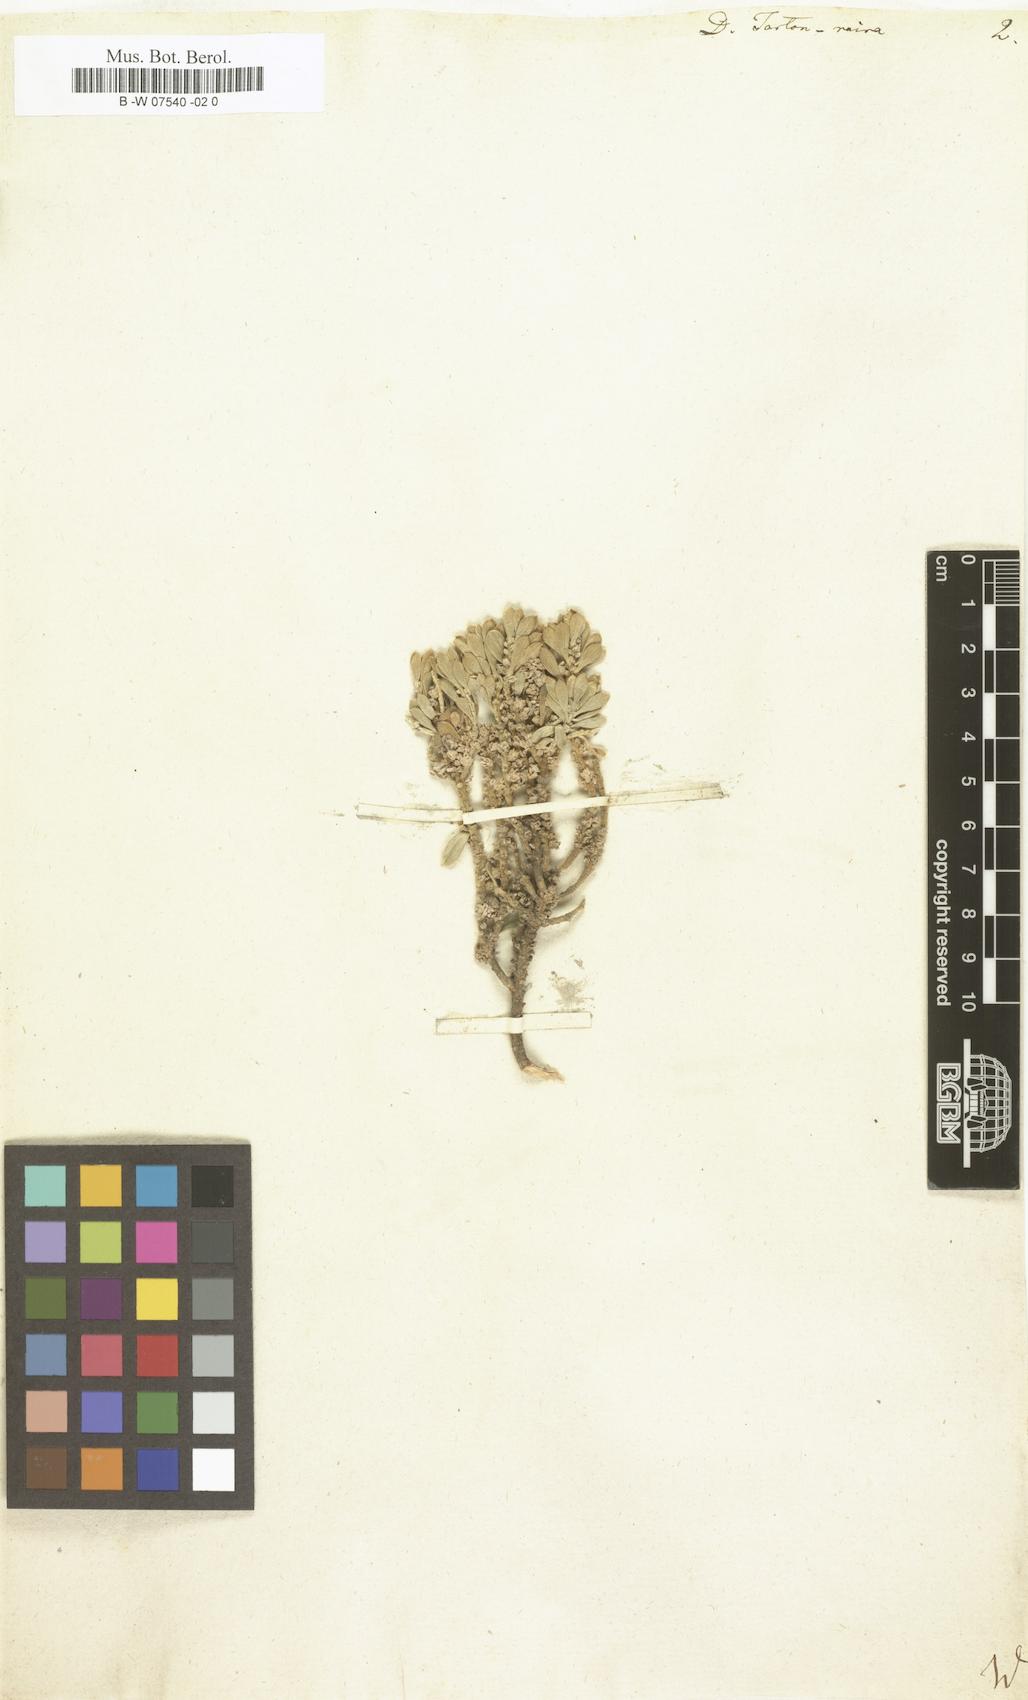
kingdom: Plantae
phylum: Tracheophyta
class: Magnoliopsida
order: Malvales
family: Thymelaeaceae
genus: Thymelaea
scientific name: Thymelaea tartonraira
